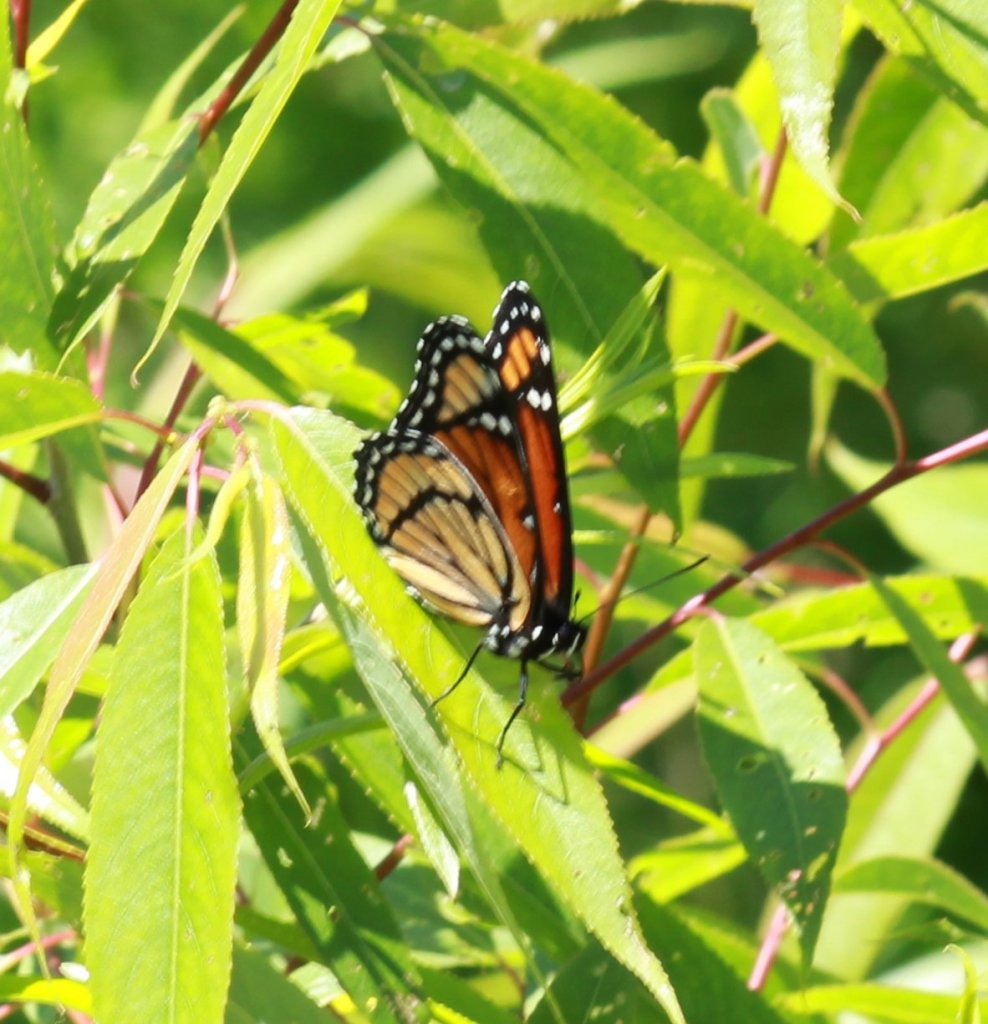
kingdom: Animalia
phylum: Arthropoda
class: Insecta
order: Lepidoptera
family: Nymphalidae
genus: Limenitis
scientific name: Limenitis archippus
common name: Viceroy
